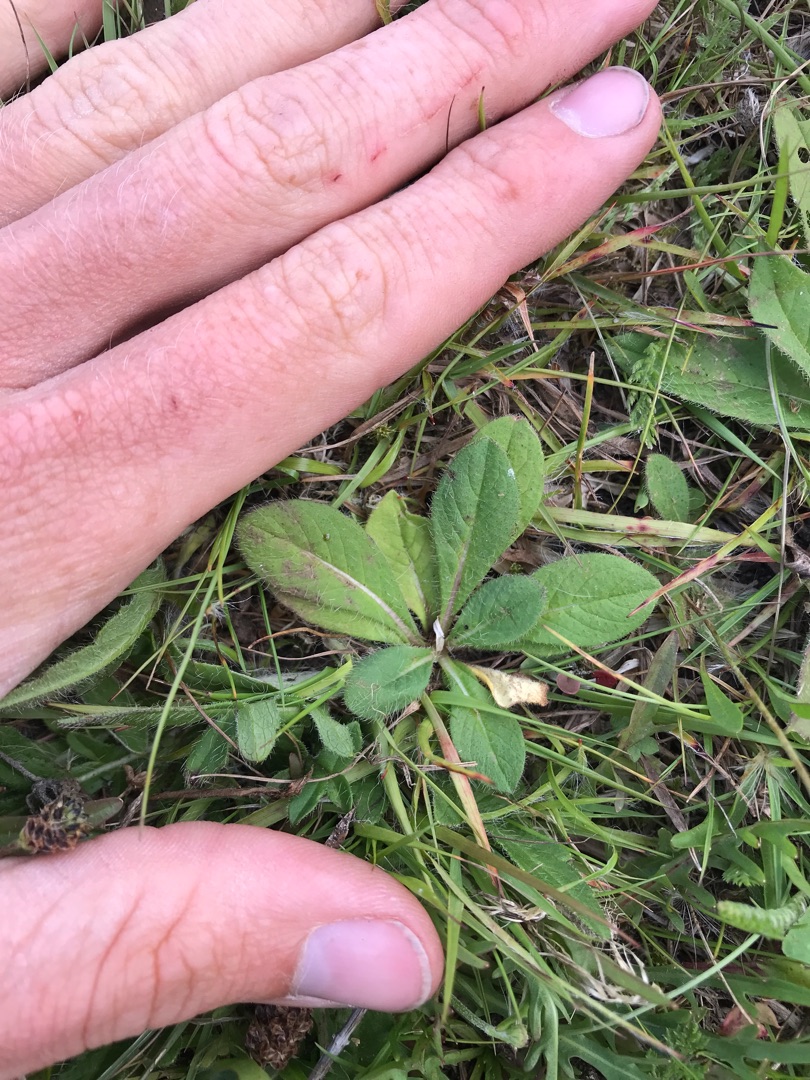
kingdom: Plantae
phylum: Tracheophyta
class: Magnoliopsida
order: Dipsacales
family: Caprifoliaceae
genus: Knautia
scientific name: Knautia arvensis
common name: Blåhat
